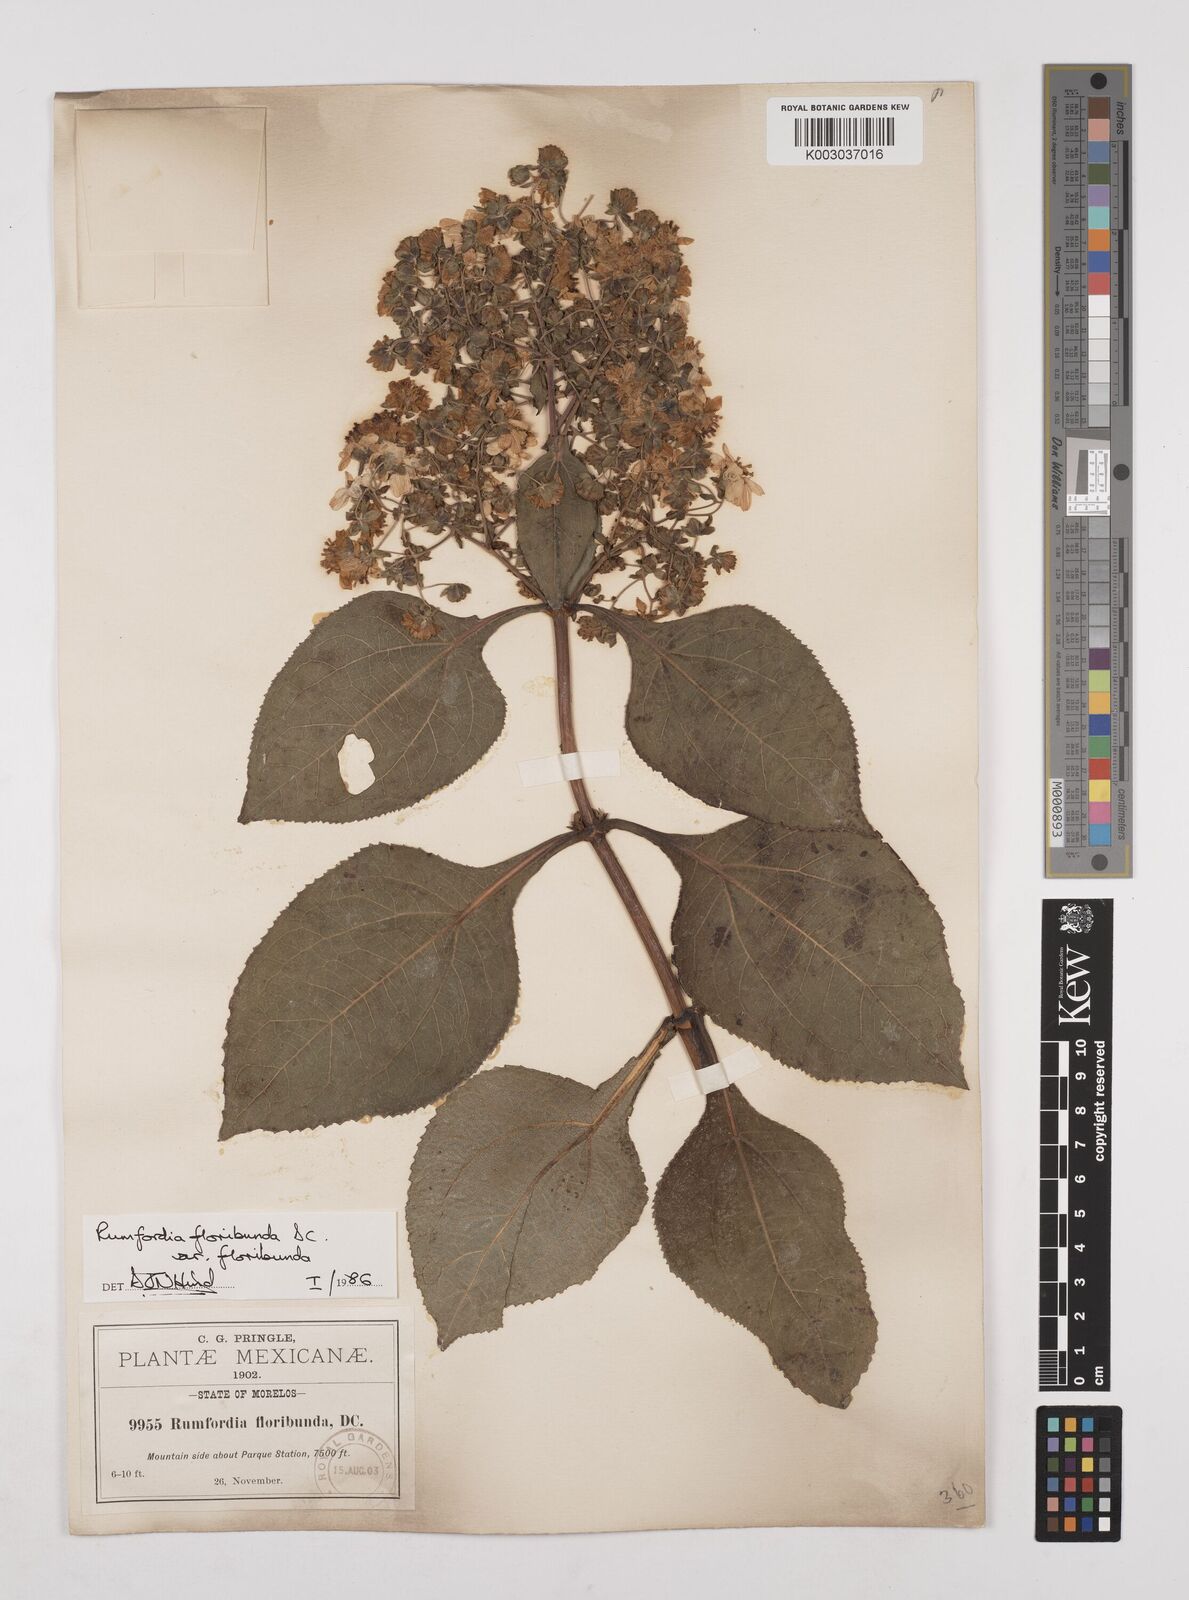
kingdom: Plantae
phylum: Tracheophyta
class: Magnoliopsida
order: Asterales
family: Asteraceae
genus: Rumfordia
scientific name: Rumfordia floribunda
